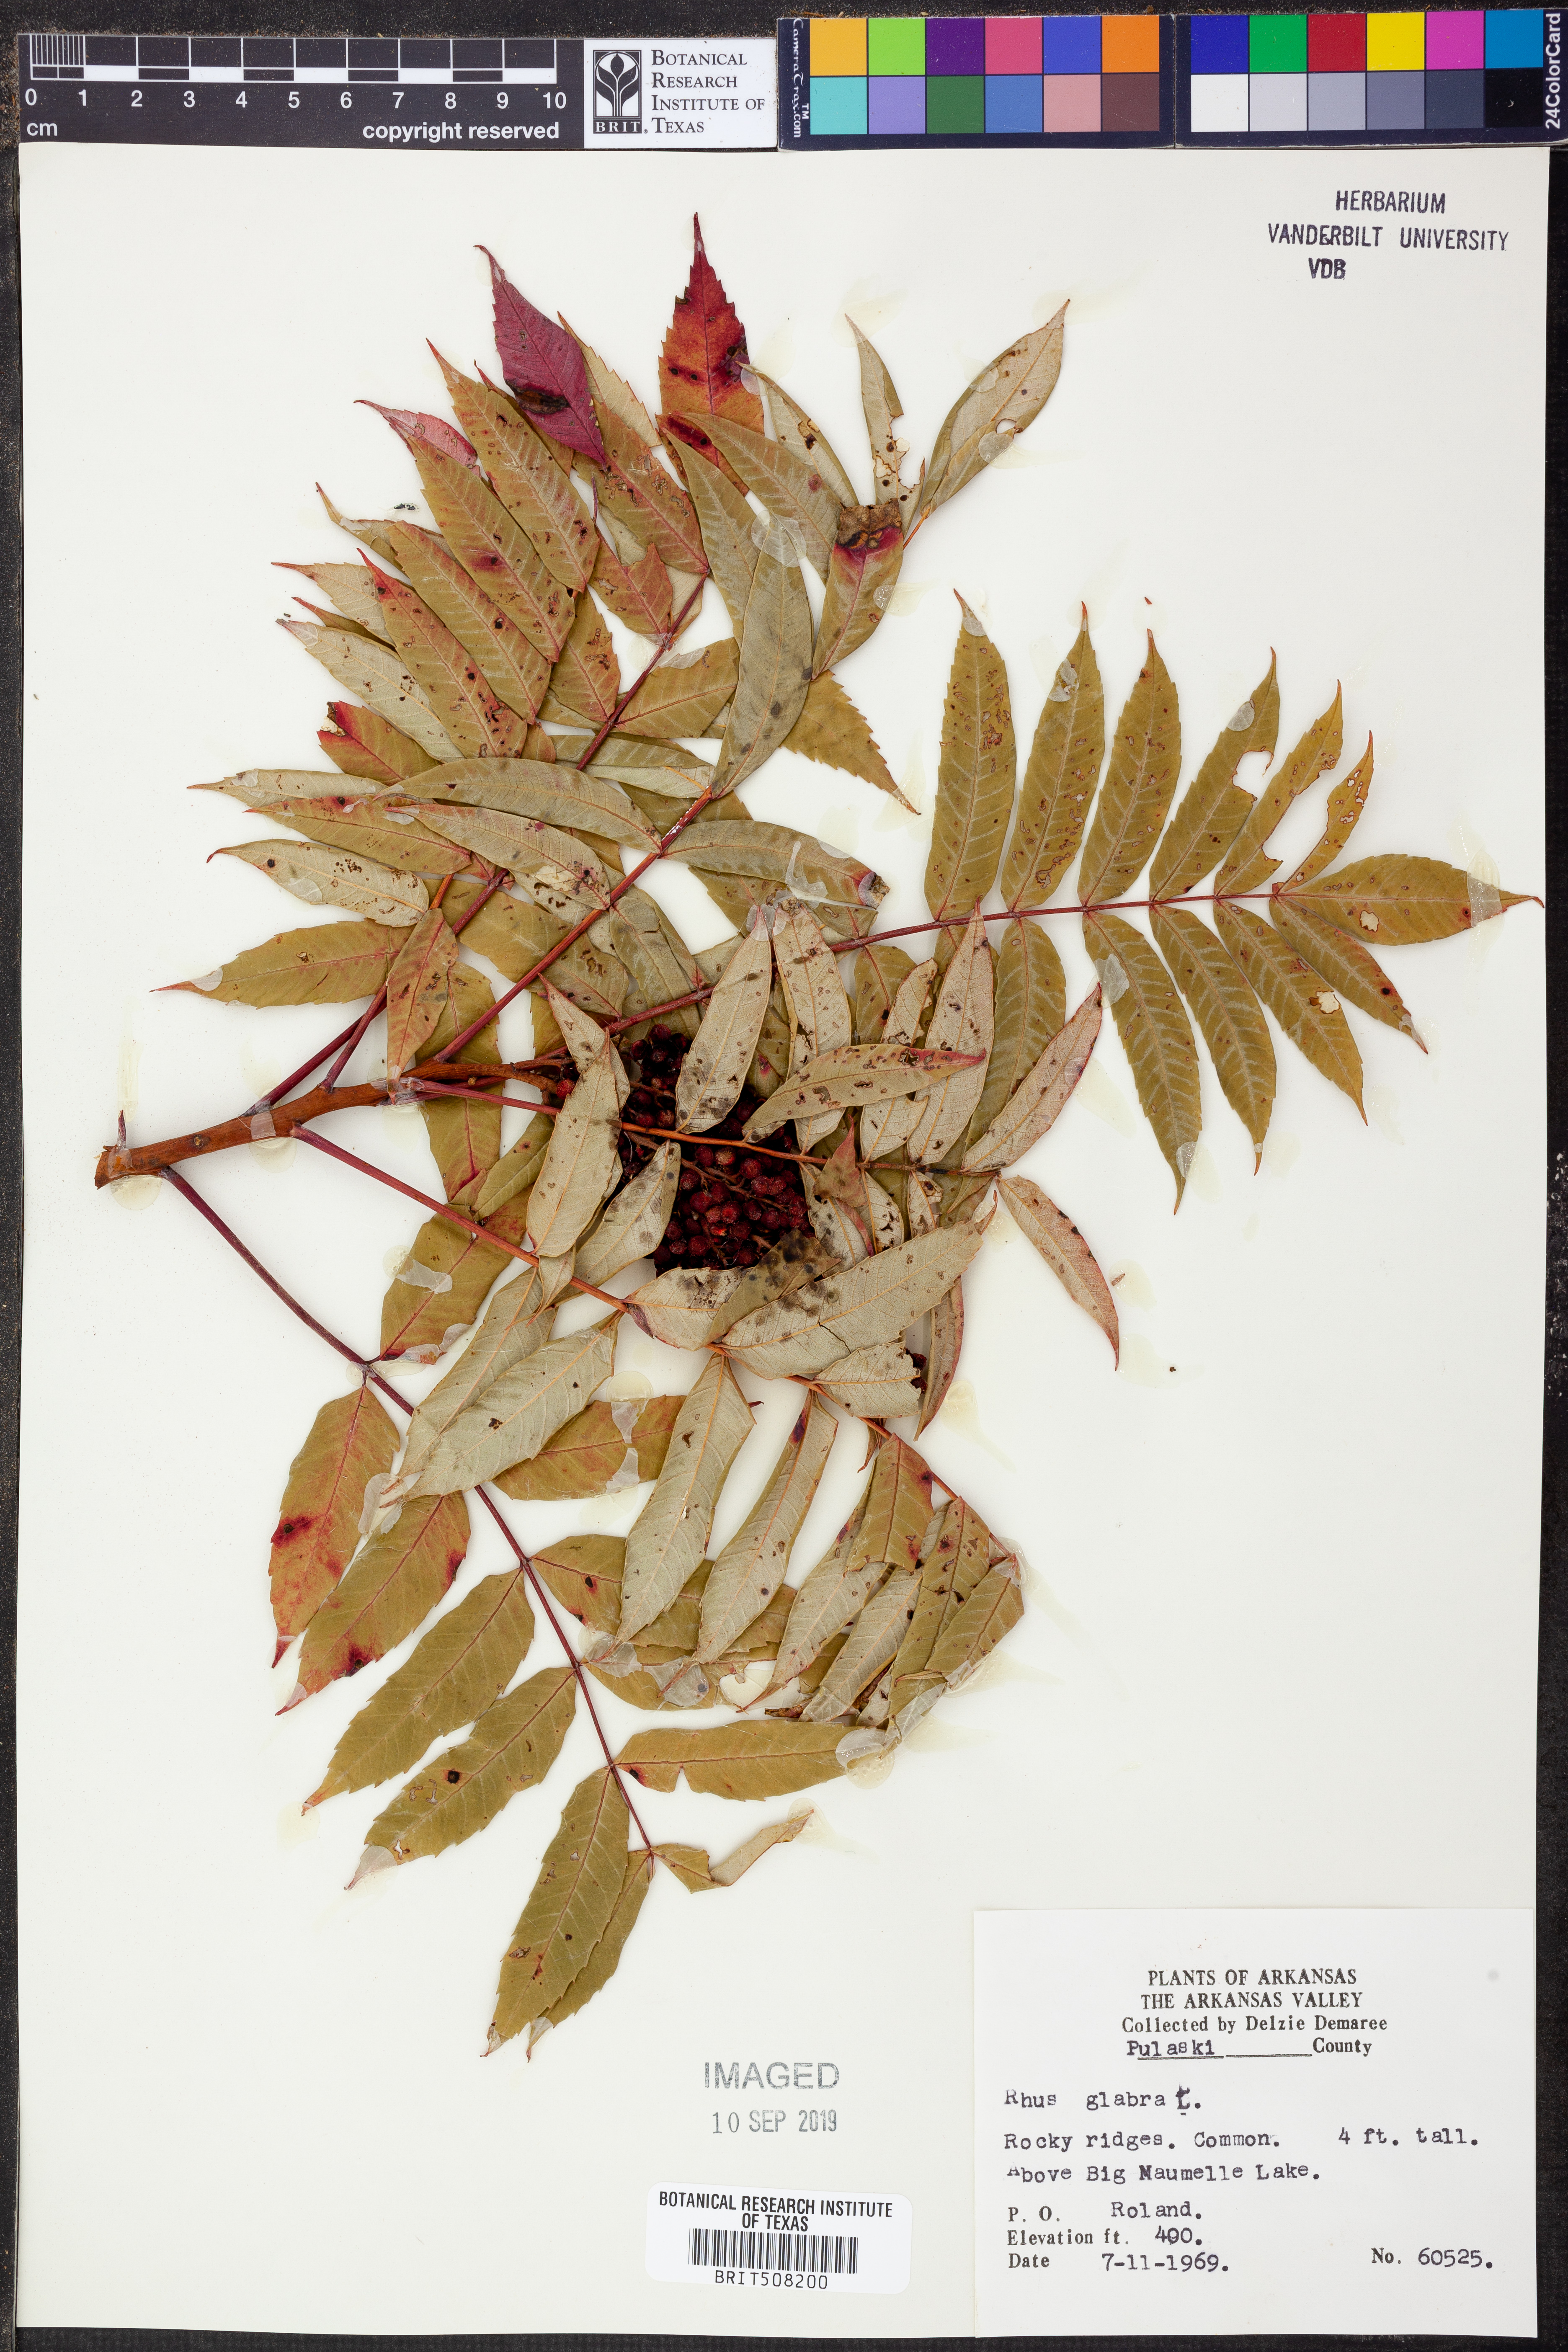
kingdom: Plantae
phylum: Tracheophyta
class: Magnoliopsida
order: Sapindales
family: Anacardiaceae
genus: Rhus
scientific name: Rhus glabra
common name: Scarlet sumac
